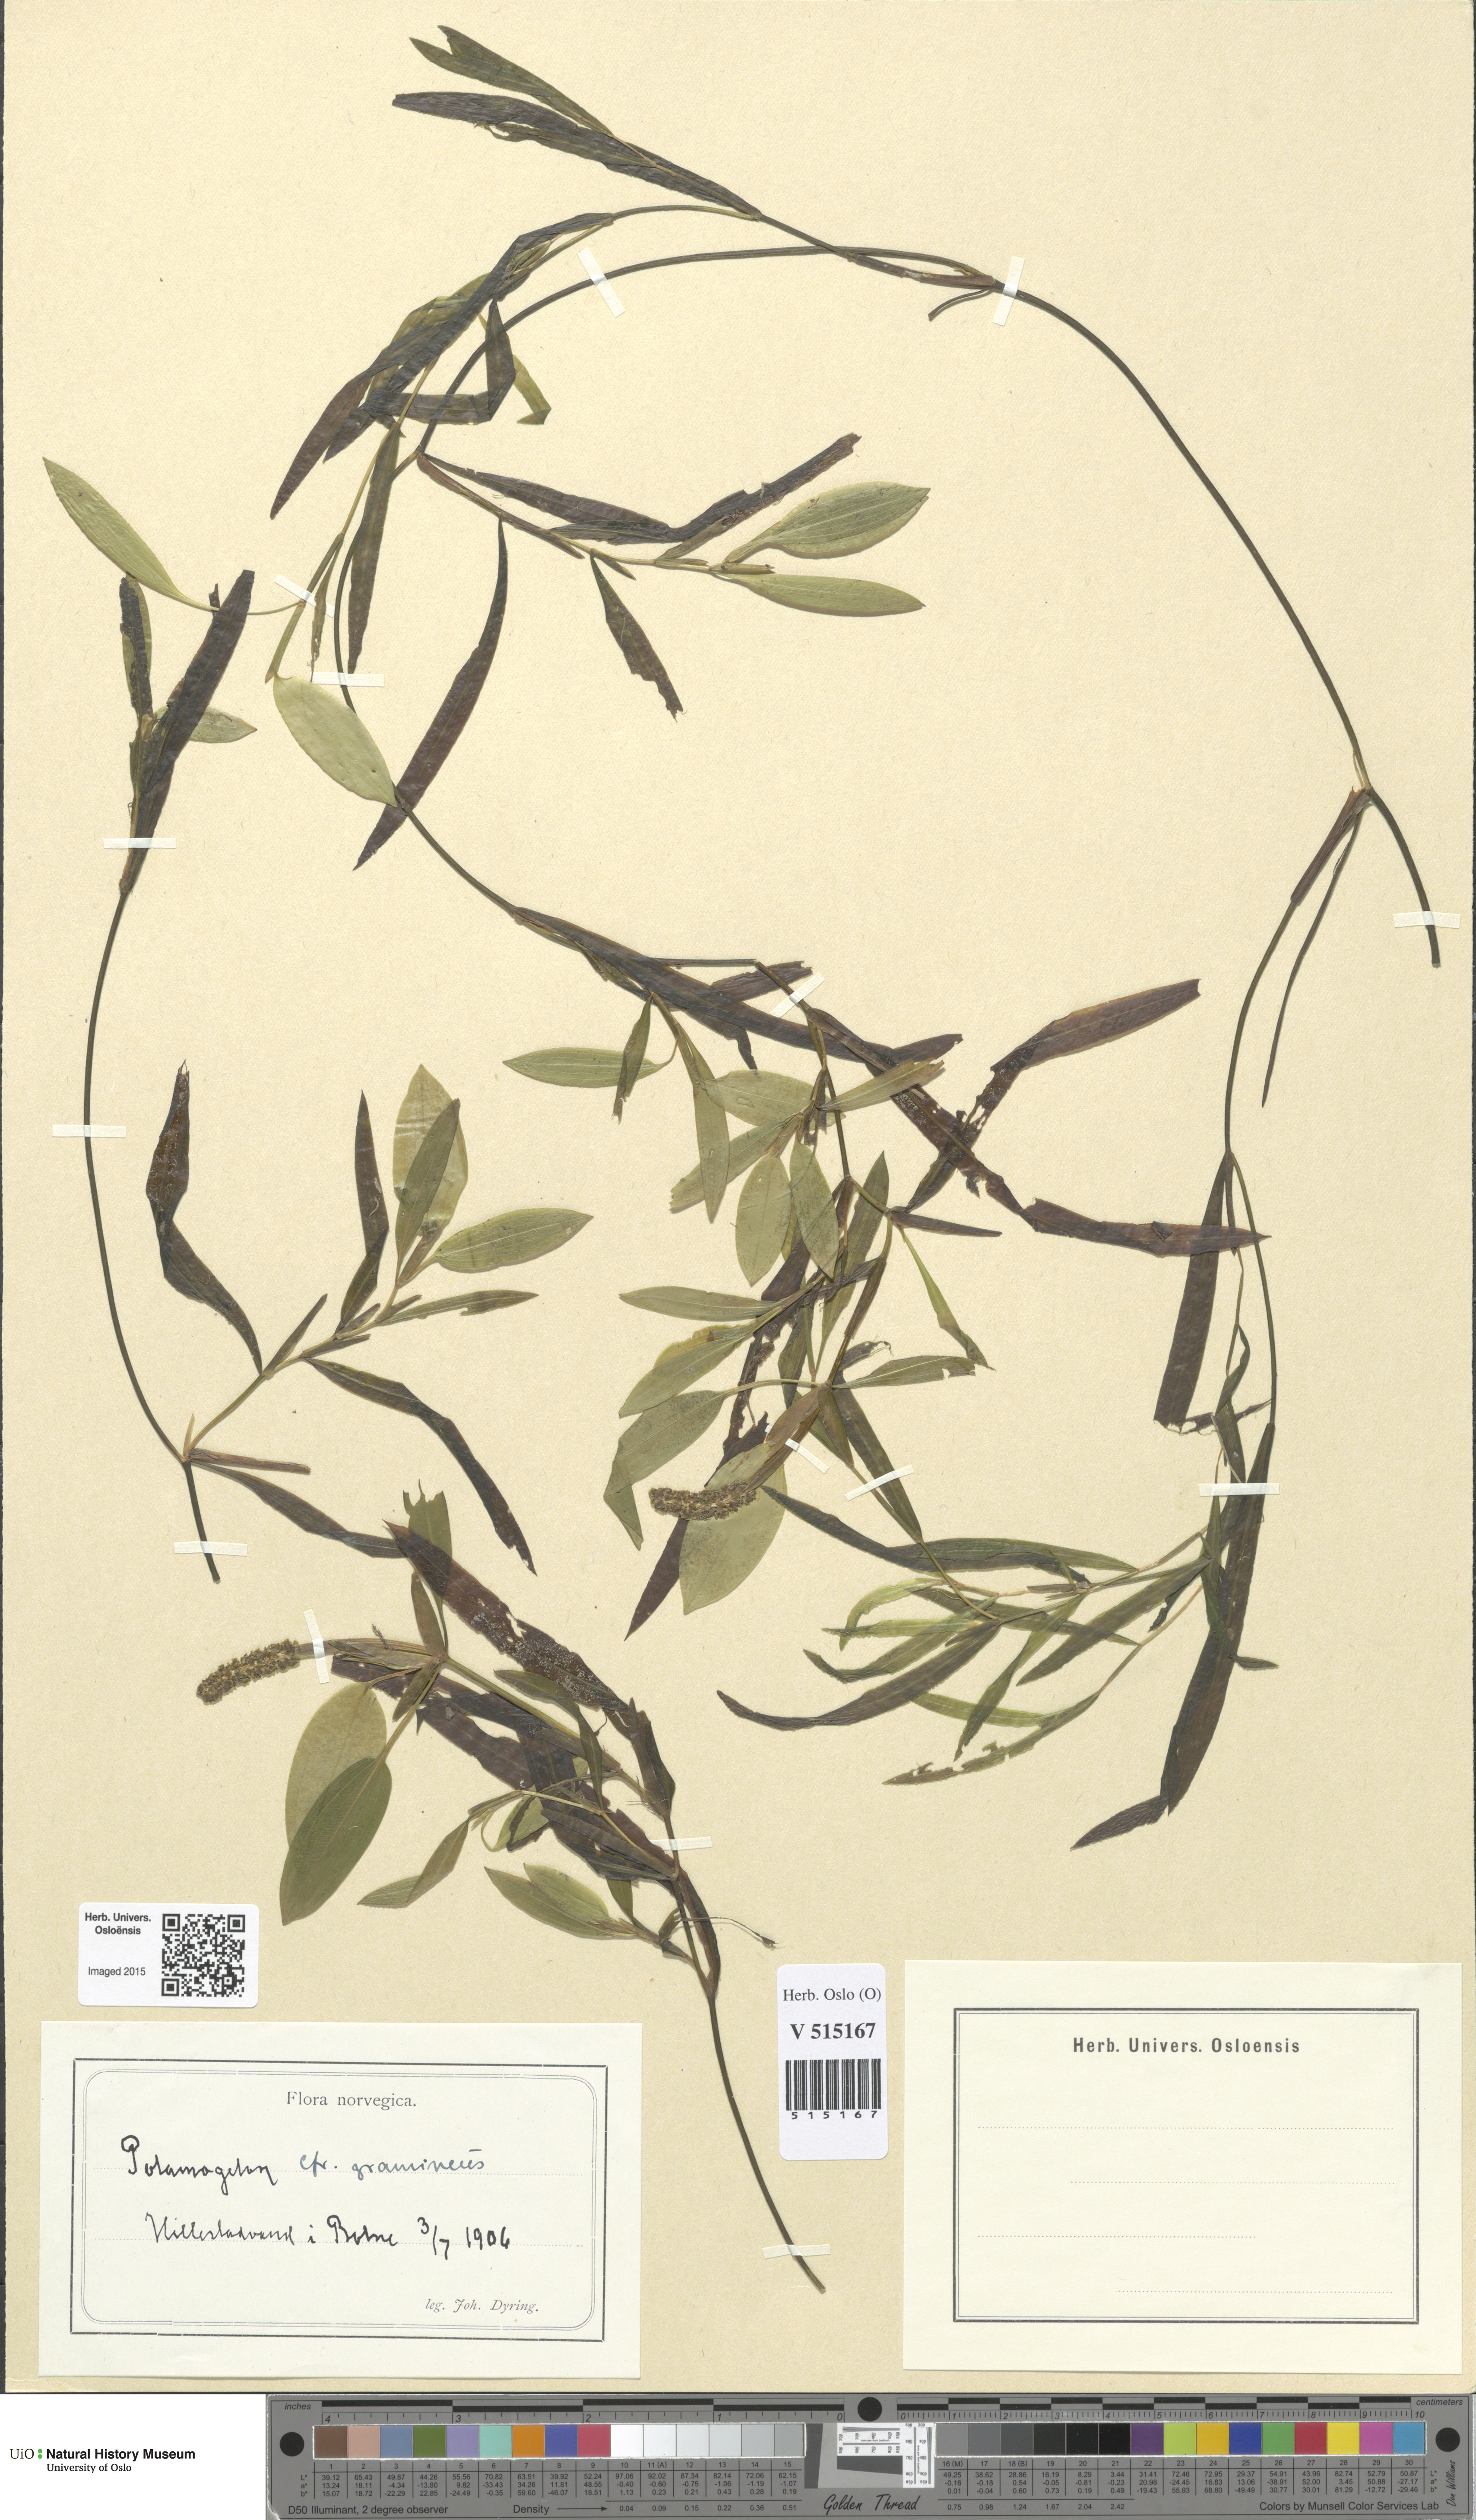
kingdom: Plantae
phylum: Tracheophyta
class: Liliopsida
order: Alismatales
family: Potamogetonaceae
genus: Potamogeton
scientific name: Potamogeton gramineus
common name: Various-leaved pondweed
